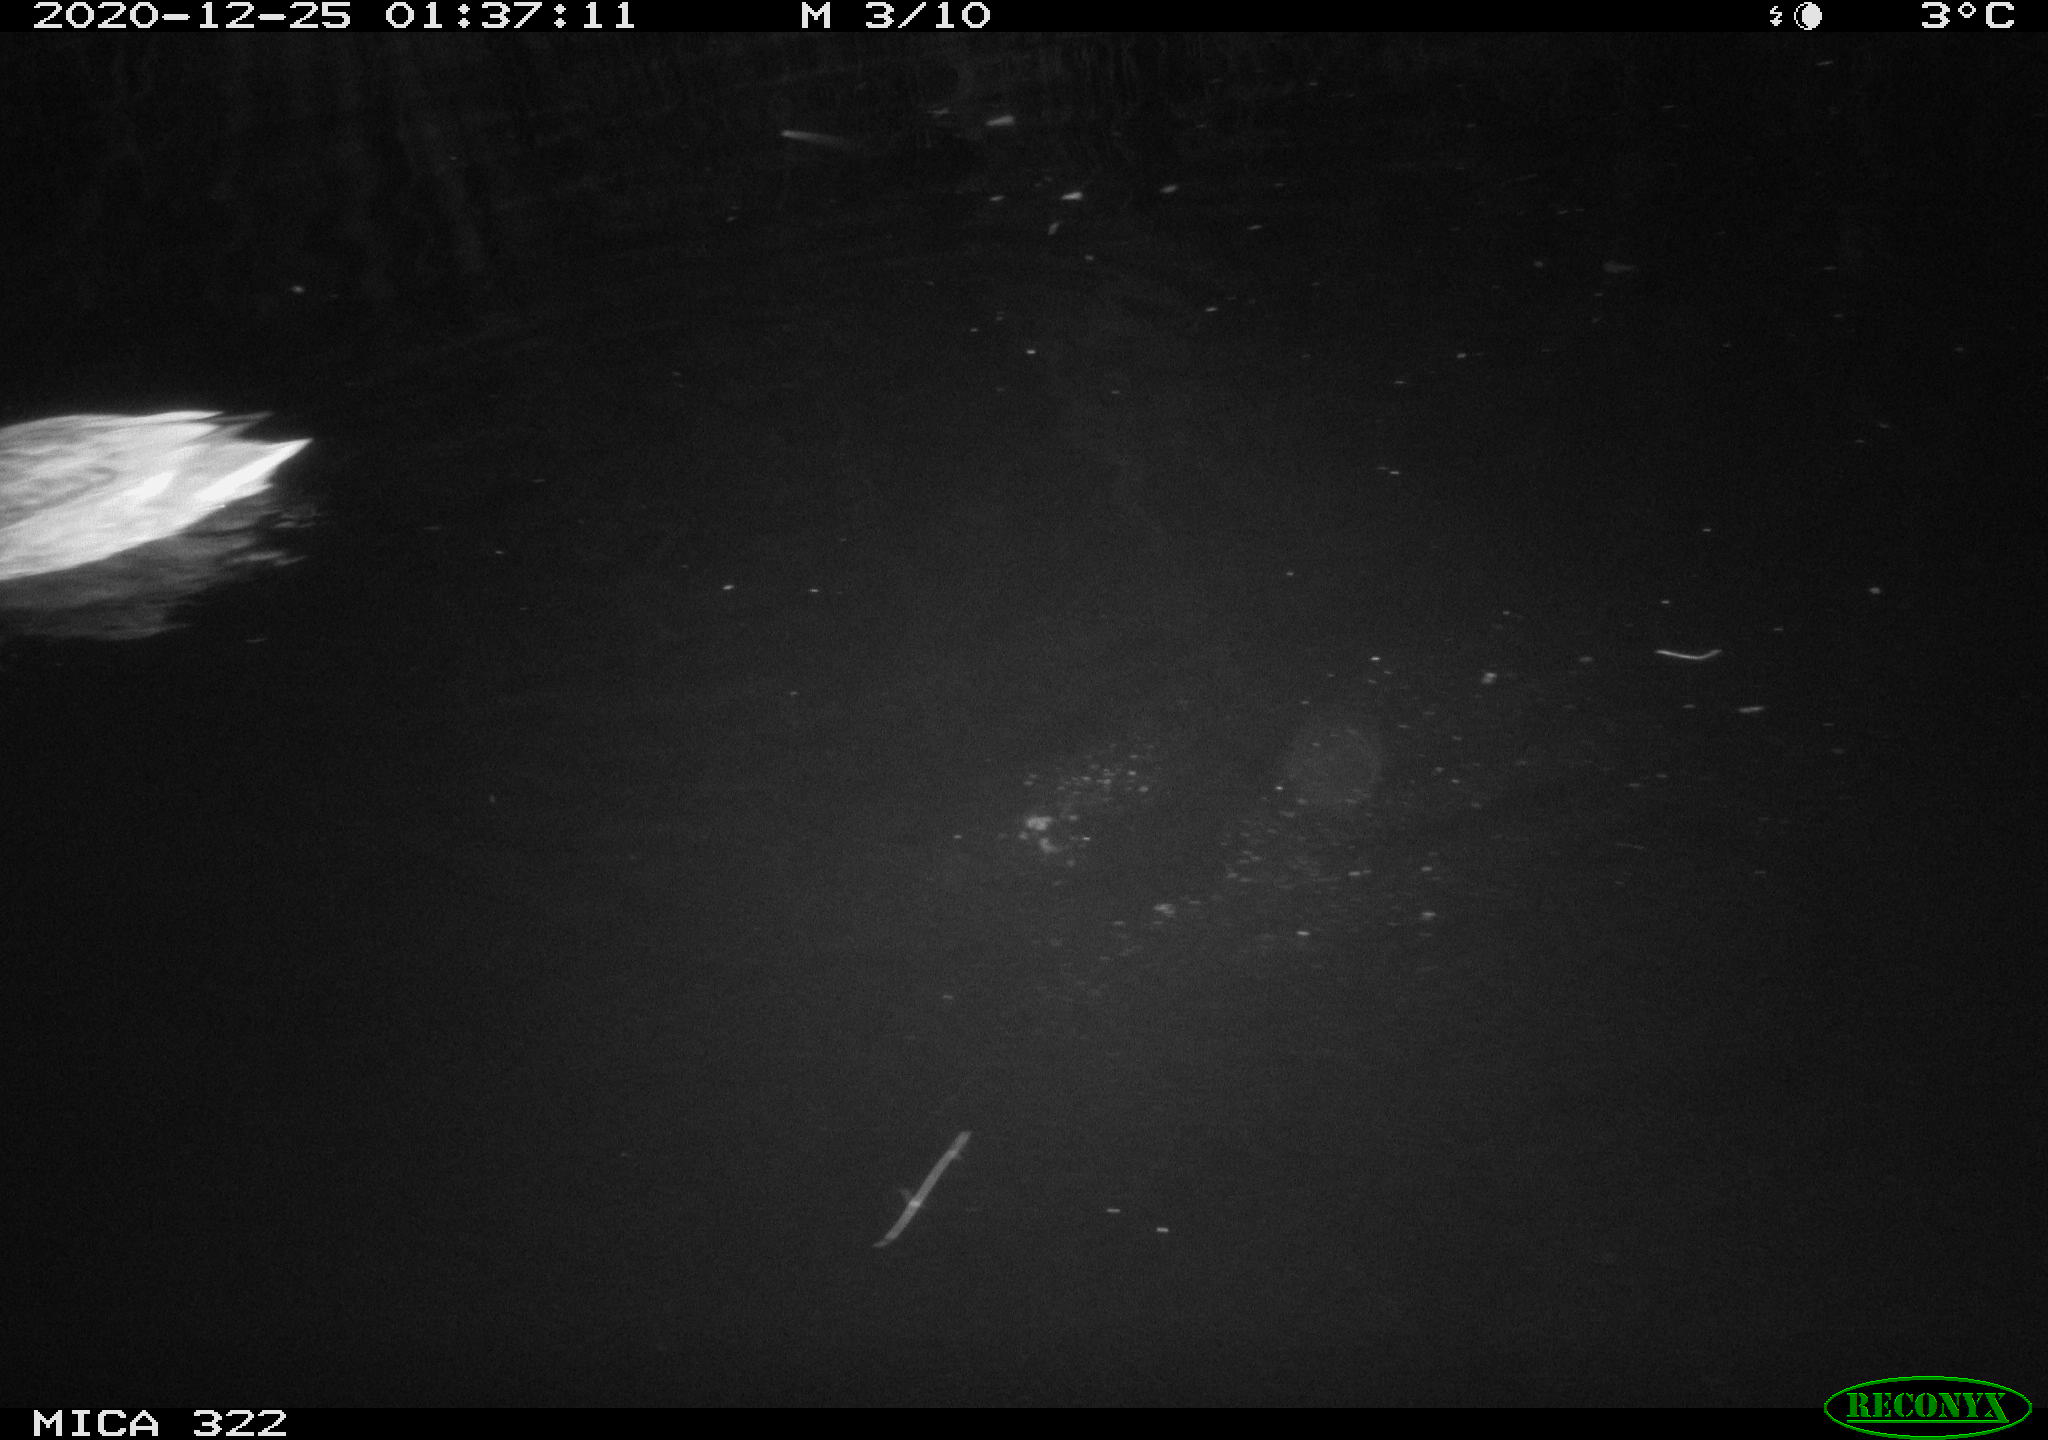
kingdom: Animalia
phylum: Chordata
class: Aves
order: Anseriformes
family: Anatidae
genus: Mareca
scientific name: Mareca strepera
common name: Gadwall
